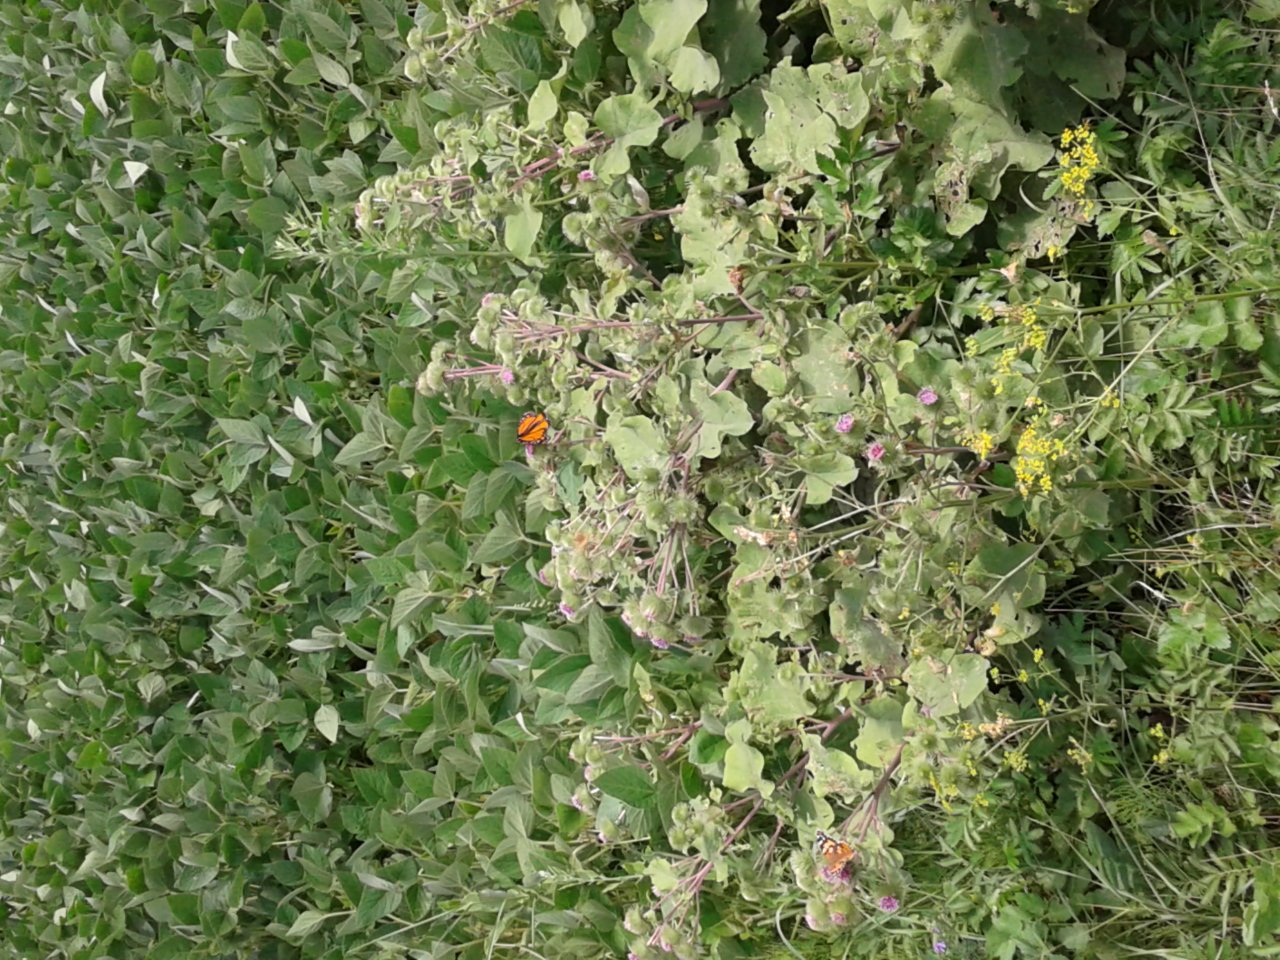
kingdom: Animalia
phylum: Arthropoda
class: Insecta
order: Lepidoptera
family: Nymphalidae
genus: Danaus
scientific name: Danaus plexippus
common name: Monarch
